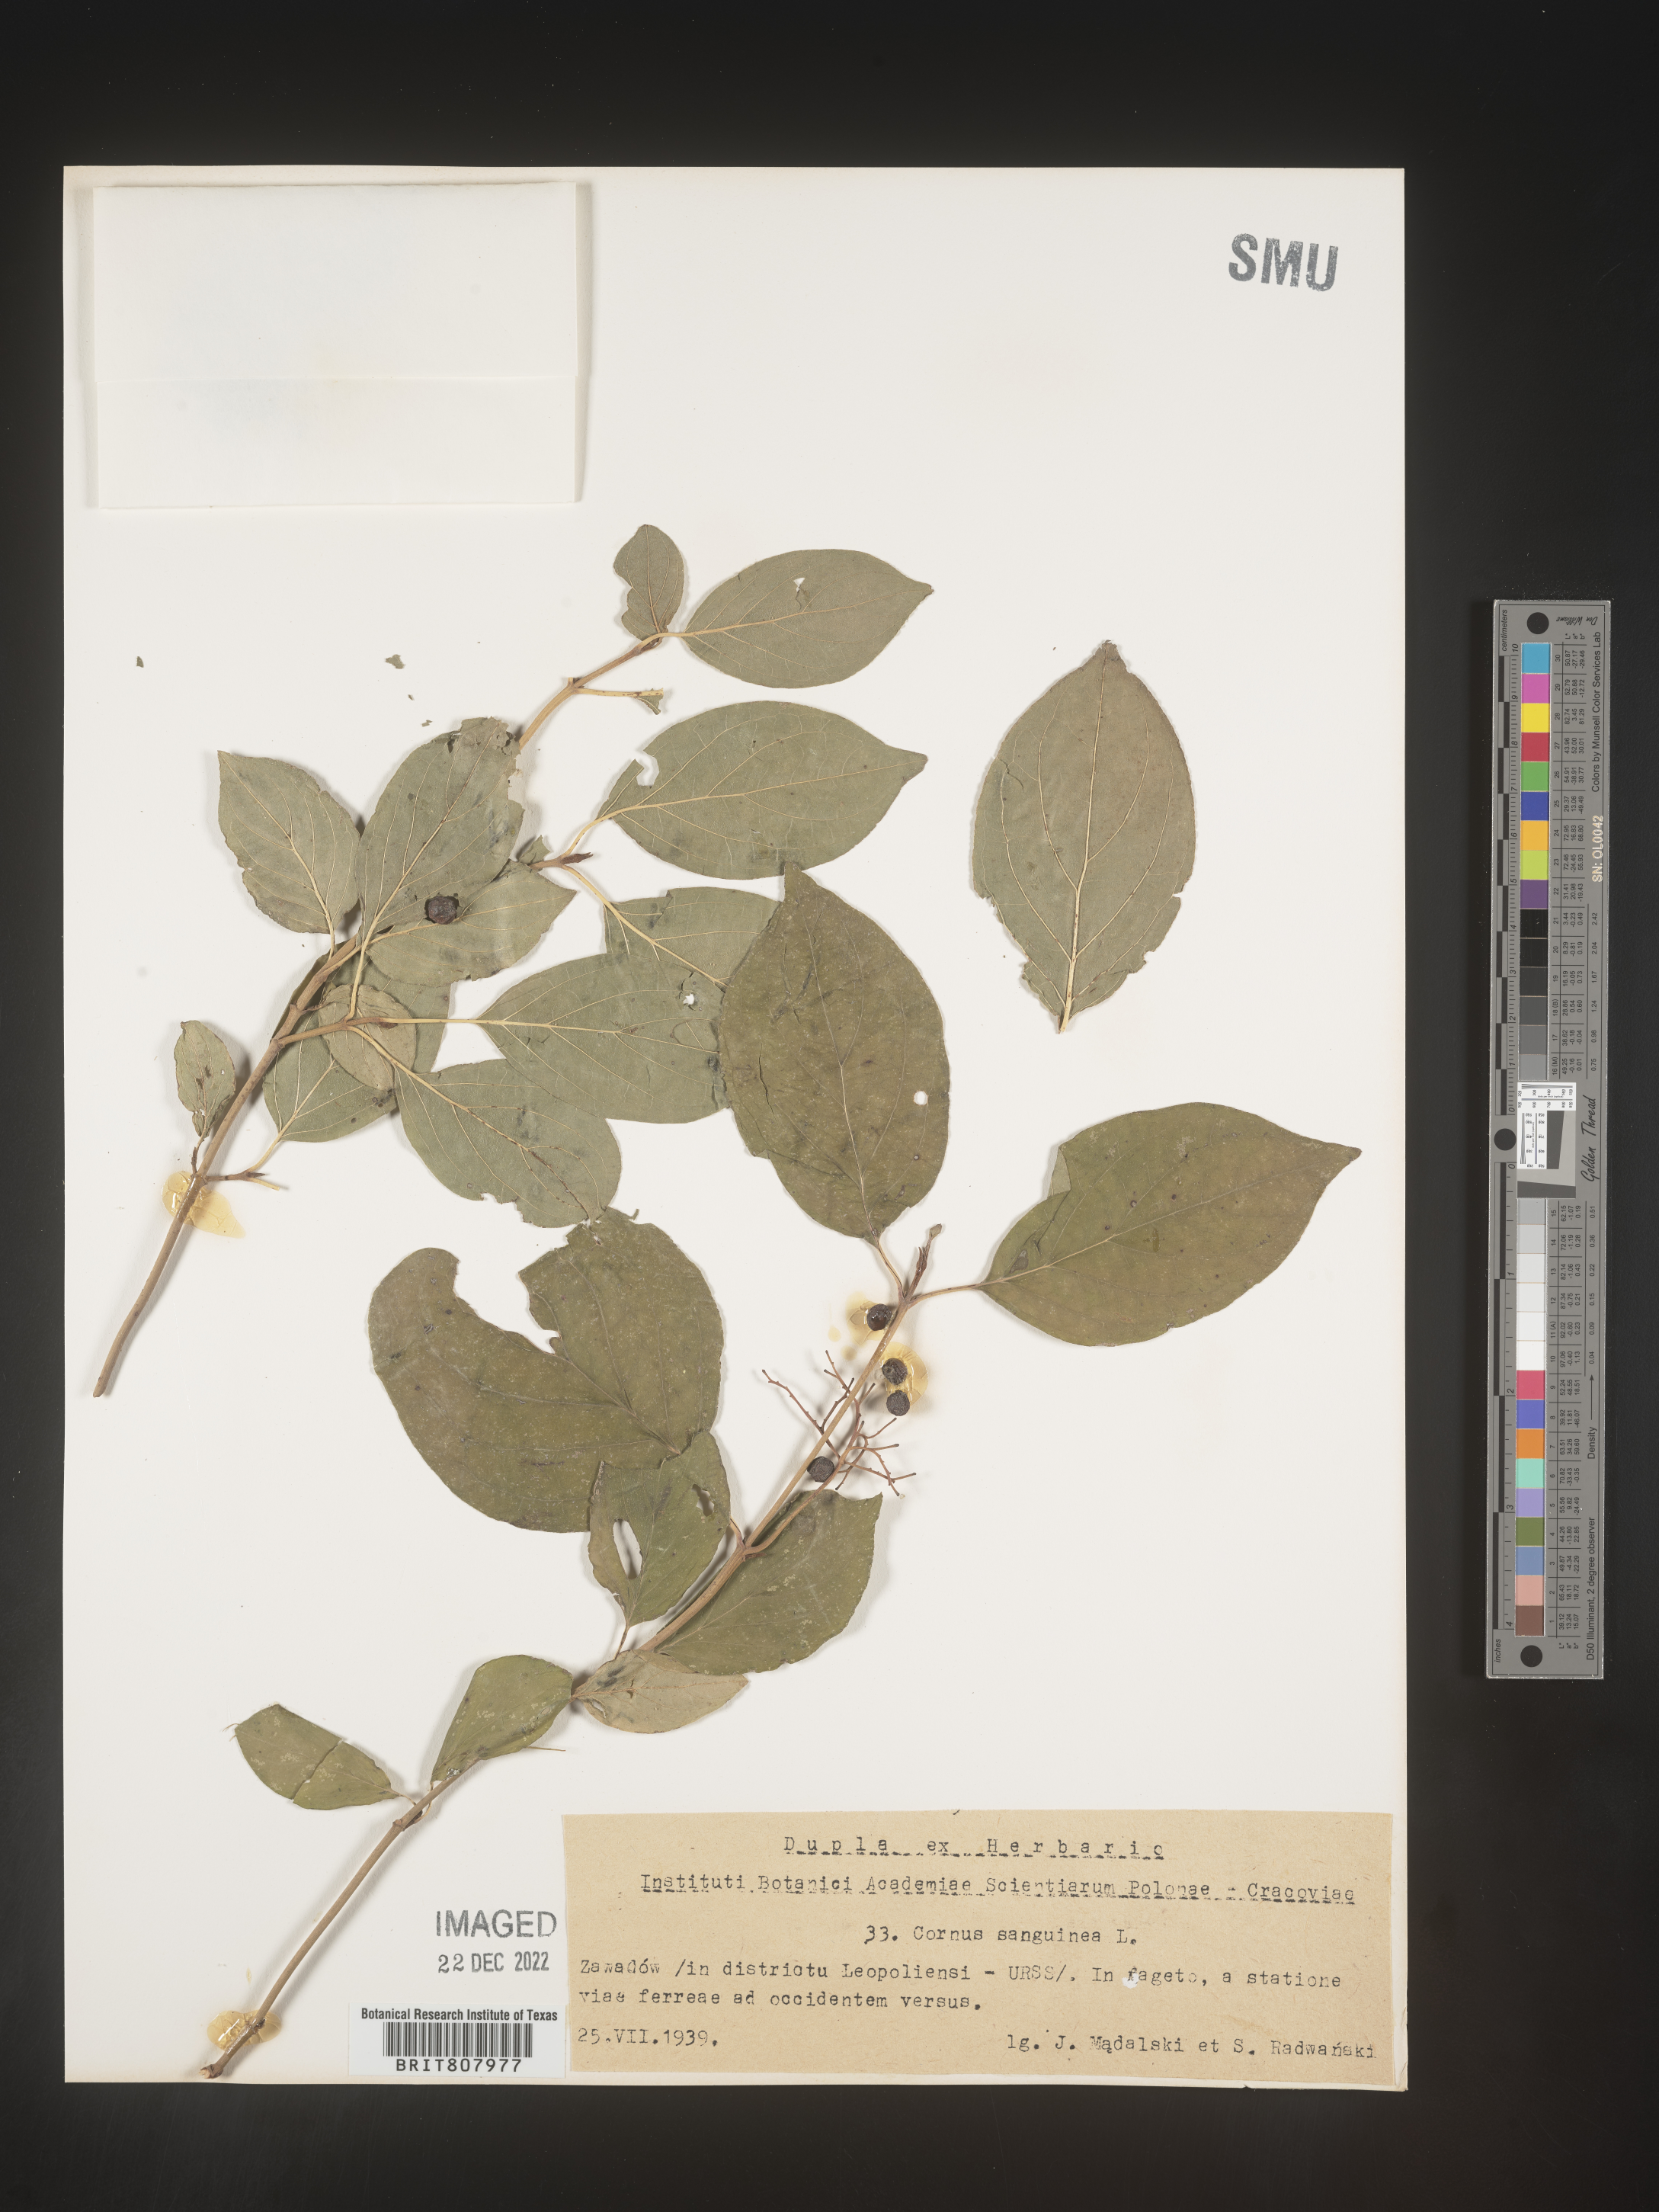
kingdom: Plantae
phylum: Tracheophyta
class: Magnoliopsida
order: Cornales
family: Cornaceae
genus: Cornus
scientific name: Cornus
